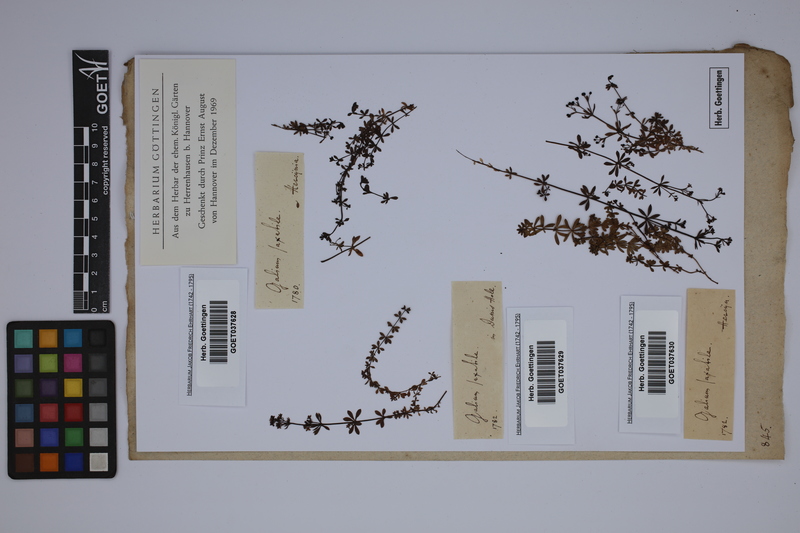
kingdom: Plantae
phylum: Tracheophyta
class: Magnoliopsida
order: Gentianales
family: Rubiaceae
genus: Galium
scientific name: Galium saxatile
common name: Heath bedstraw
